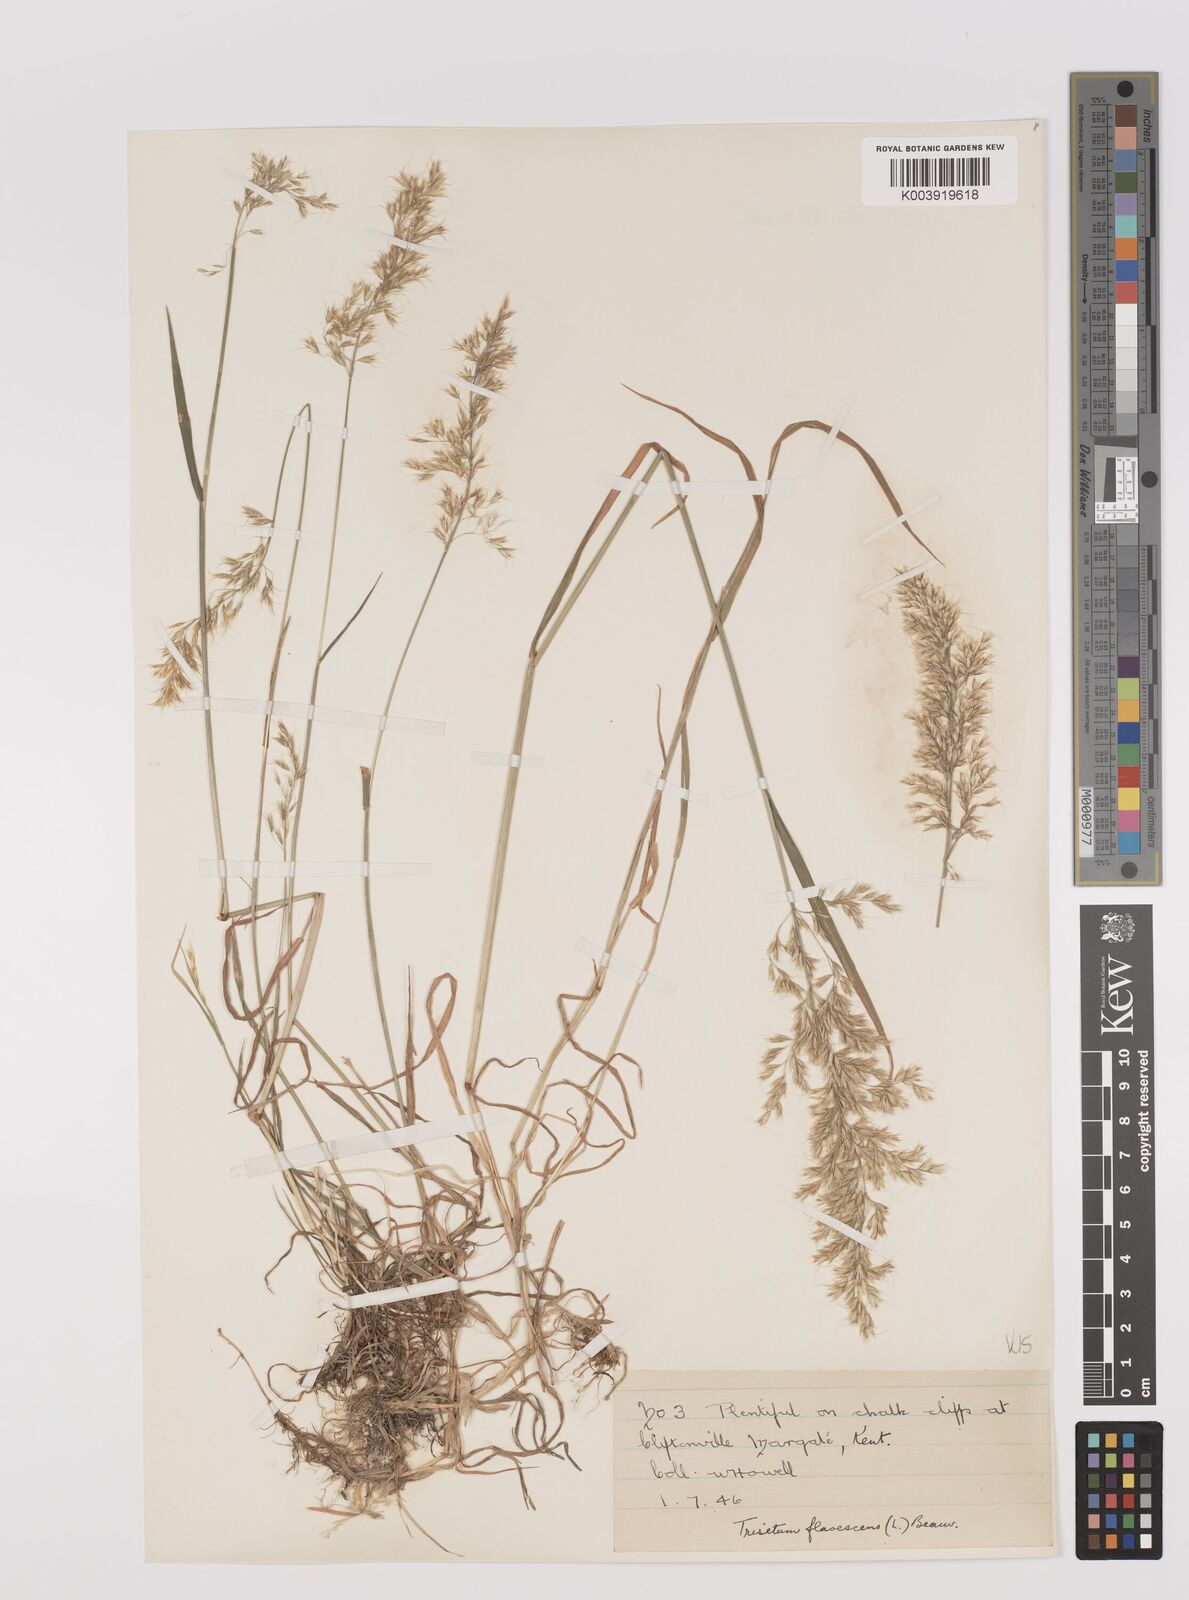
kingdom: Plantae
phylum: Tracheophyta
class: Liliopsida
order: Poales
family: Poaceae
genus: Trisetum
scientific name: Trisetum flavescens
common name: Yellow oat-grass
